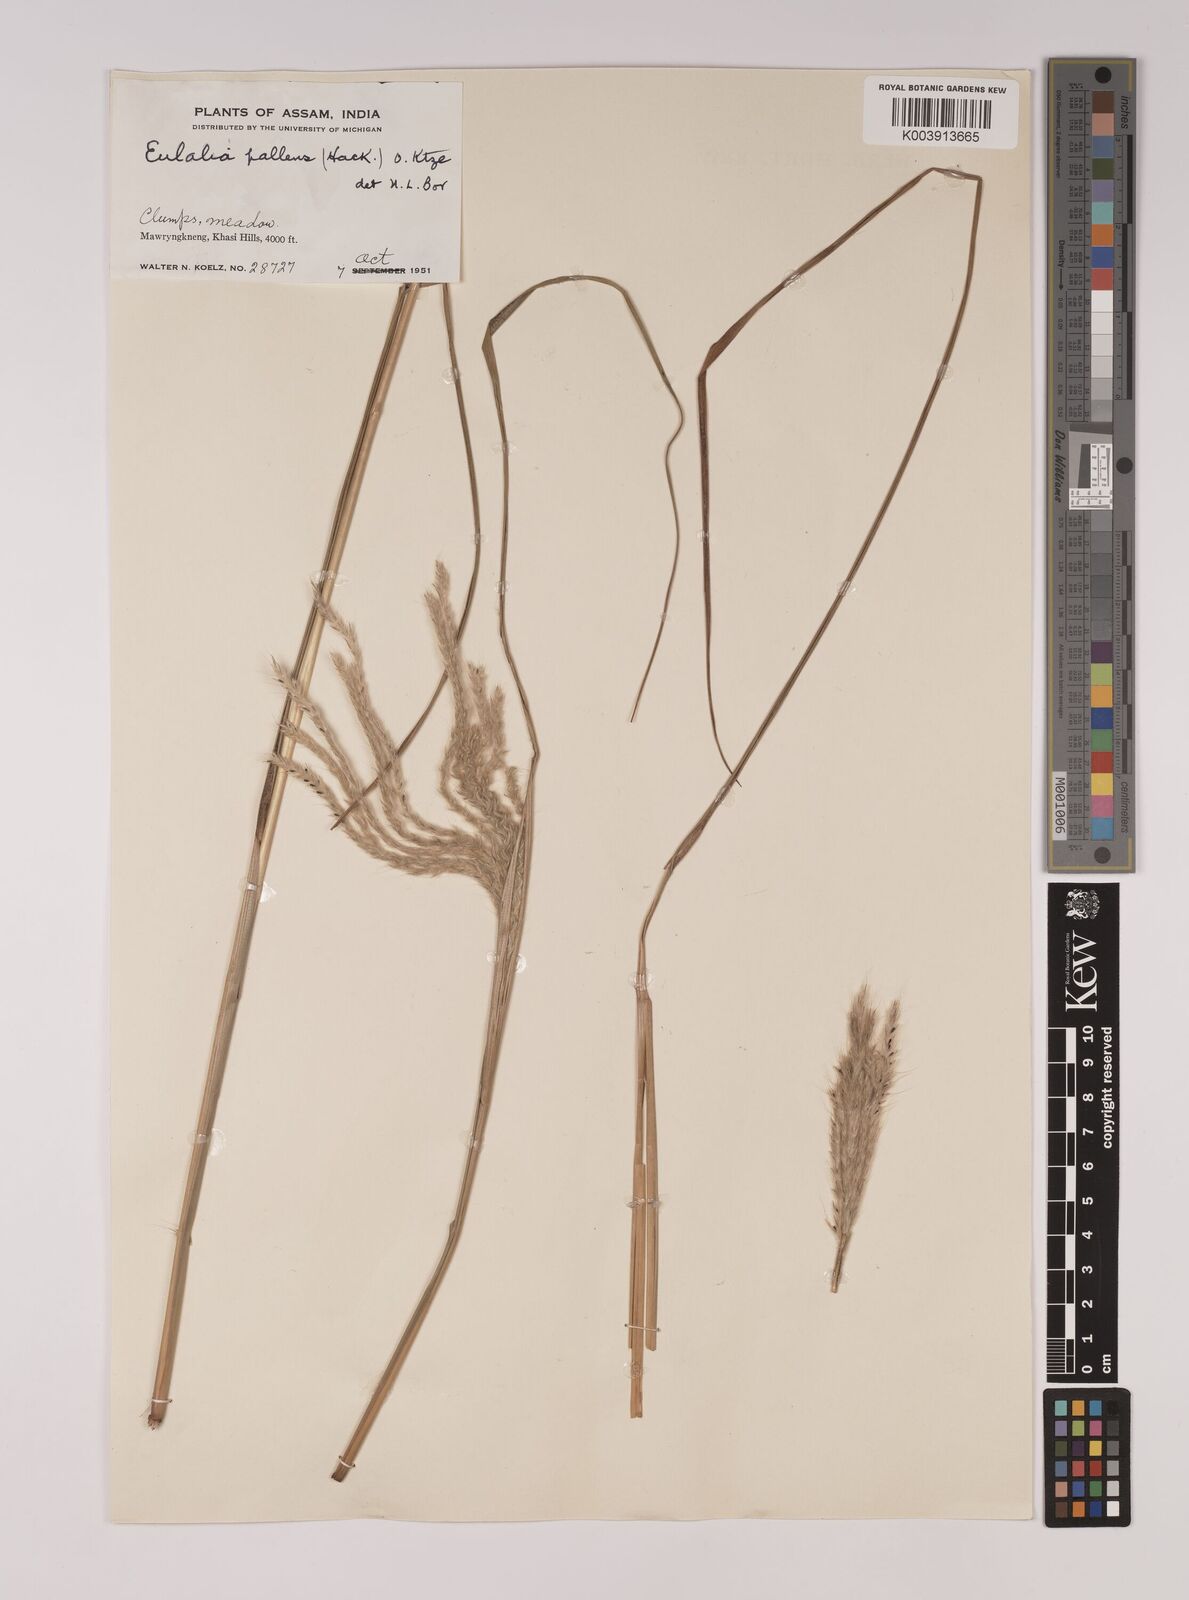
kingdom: Plantae
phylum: Tracheophyta
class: Liliopsida
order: Poales
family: Poaceae
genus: Eulalia
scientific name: Eulalia pallens
